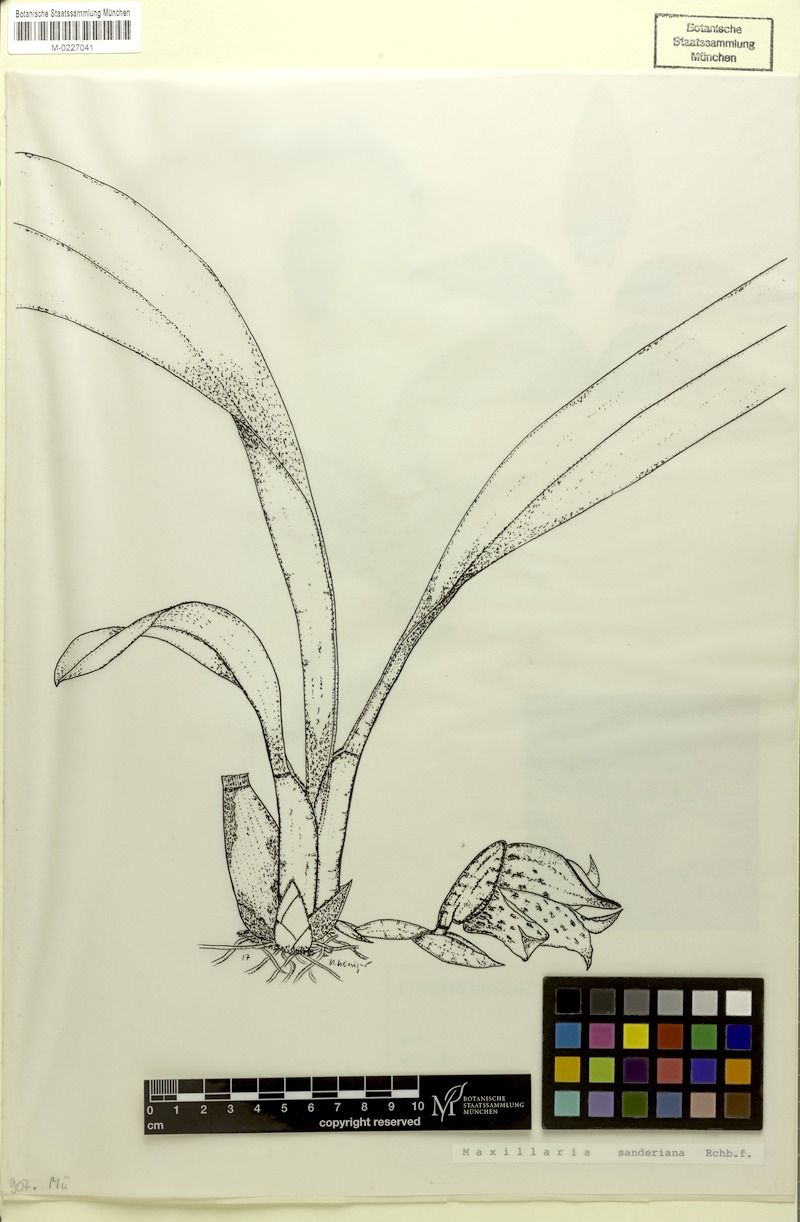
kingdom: Plantae
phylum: Tracheophyta
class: Liliopsida
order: Asparagales
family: Orchidaceae
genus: Maxillaria
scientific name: Maxillaria sanderiana
